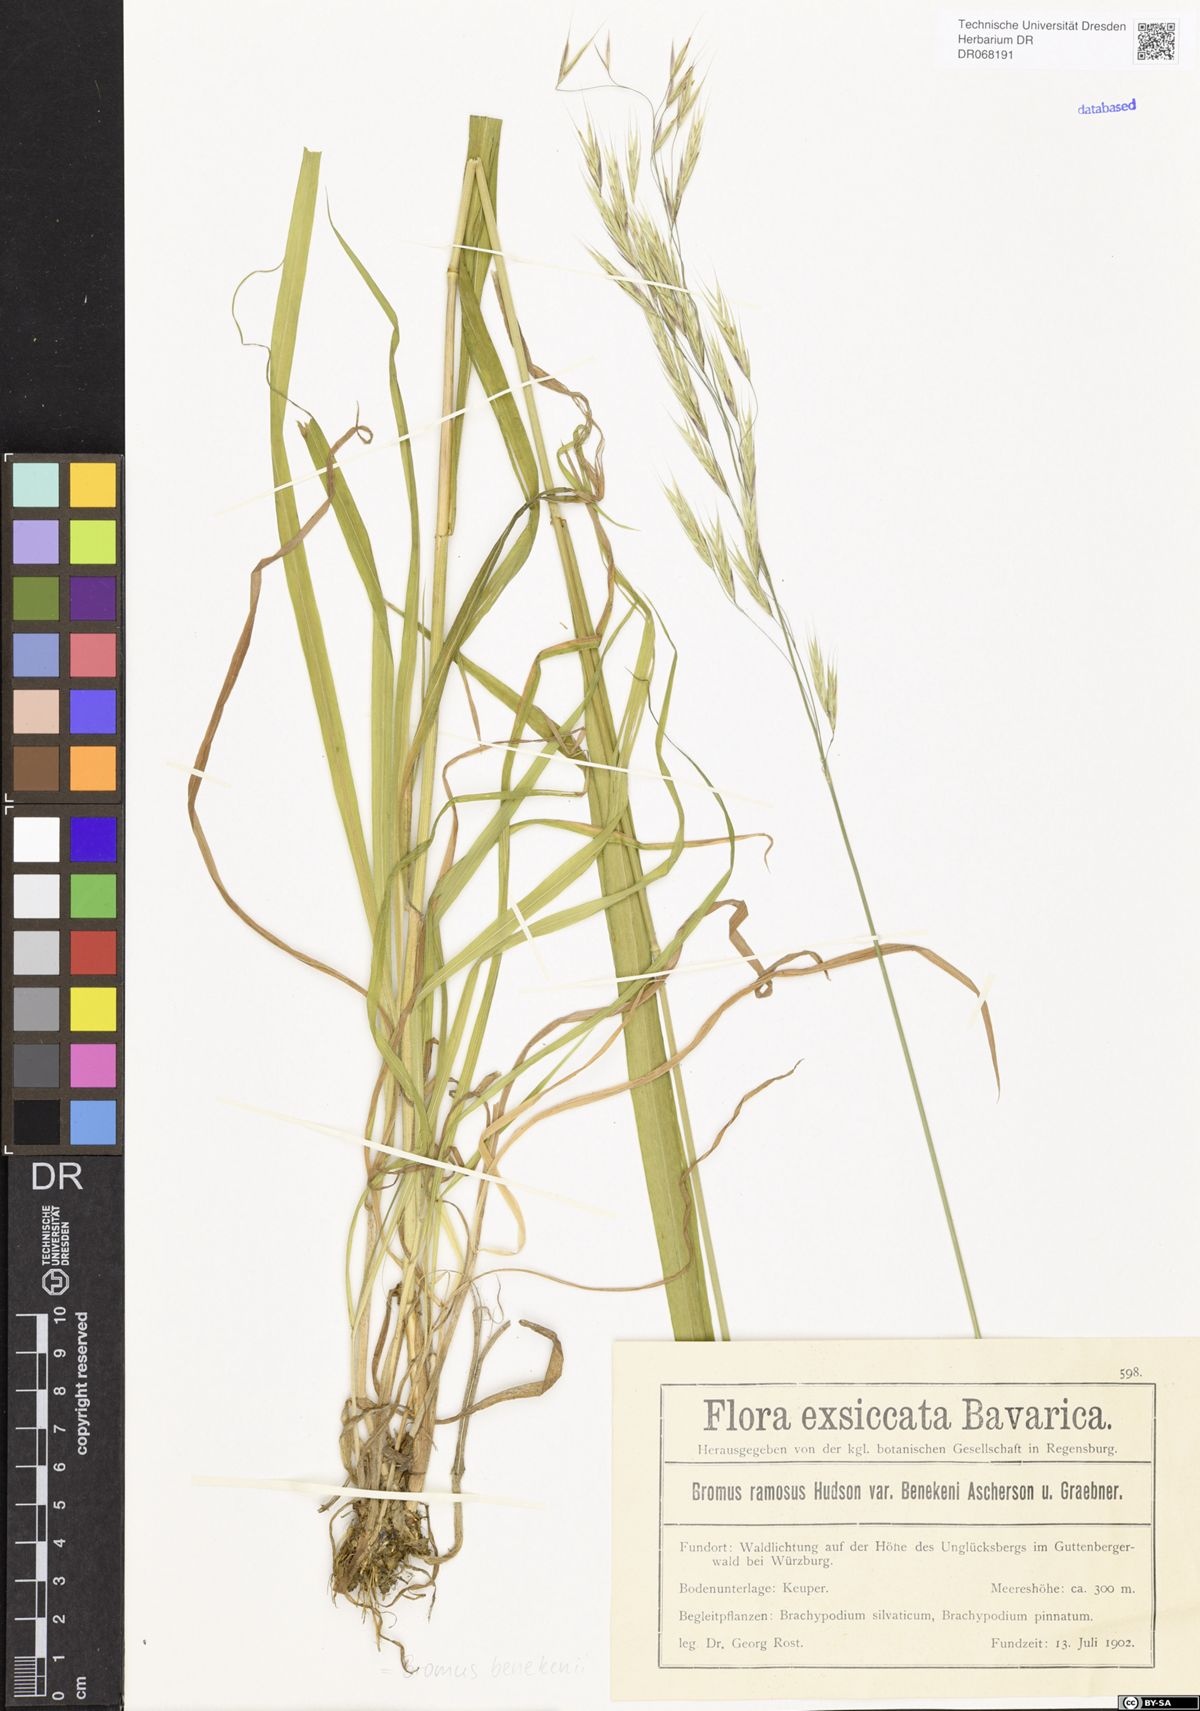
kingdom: Plantae
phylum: Tracheophyta
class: Liliopsida
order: Poales
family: Poaceae
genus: Bromus
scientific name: Bromus benekenii
